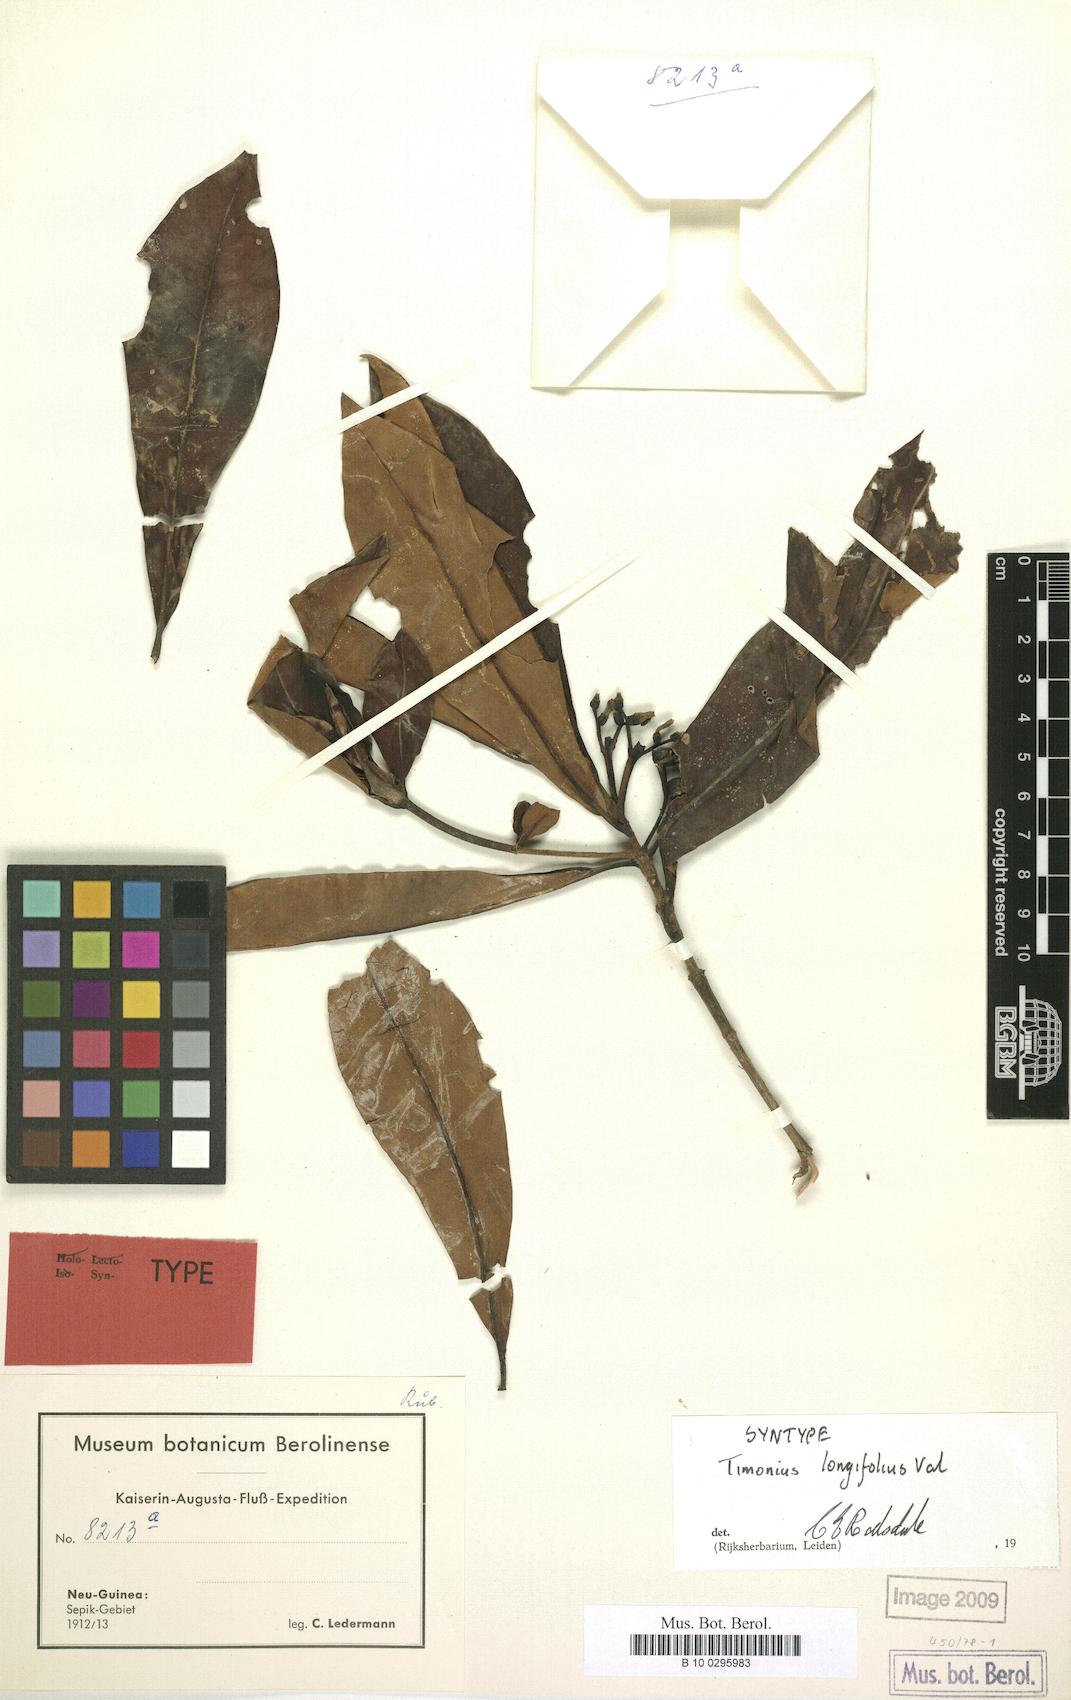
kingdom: Plantae
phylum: Tracheophyta
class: Magnoliopsida
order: Gentianales
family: Rubiaceae
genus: Timonius
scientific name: Timonius longifolius
